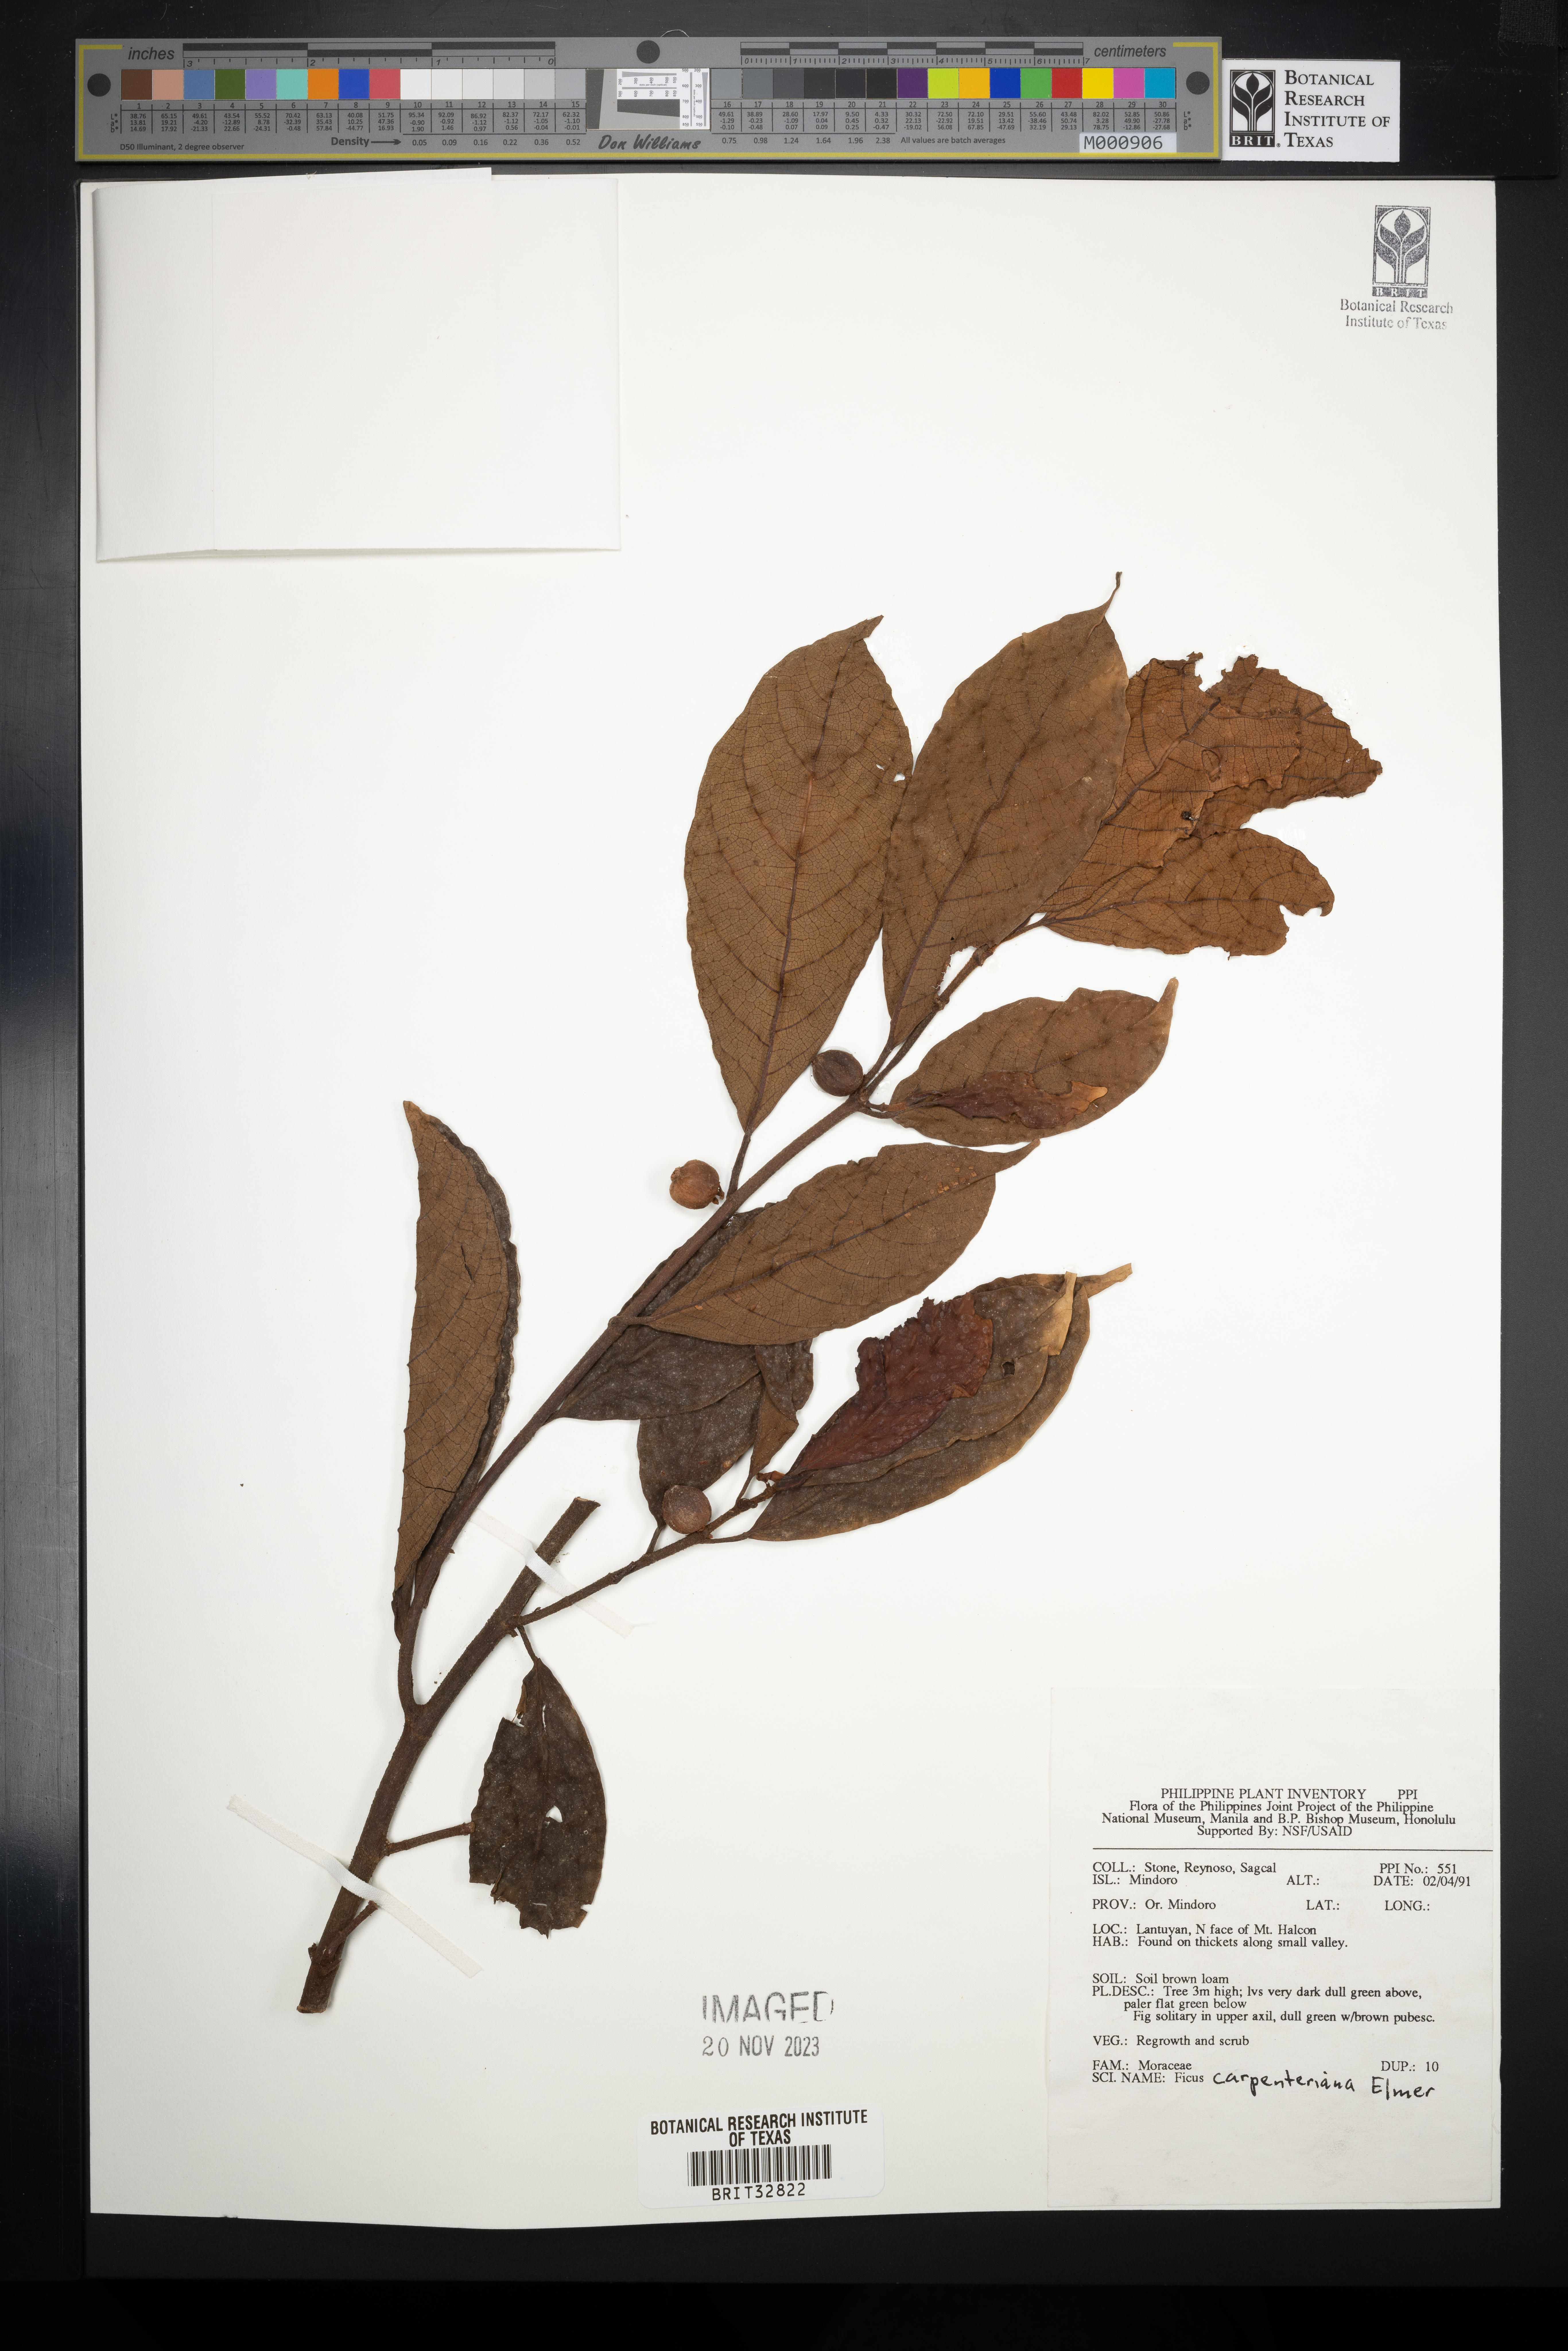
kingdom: Plantae
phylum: Tracheophyta
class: Magnoliopsida
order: Rosales
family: Moraceae
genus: Ficus
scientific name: Ficus carpenteriana
